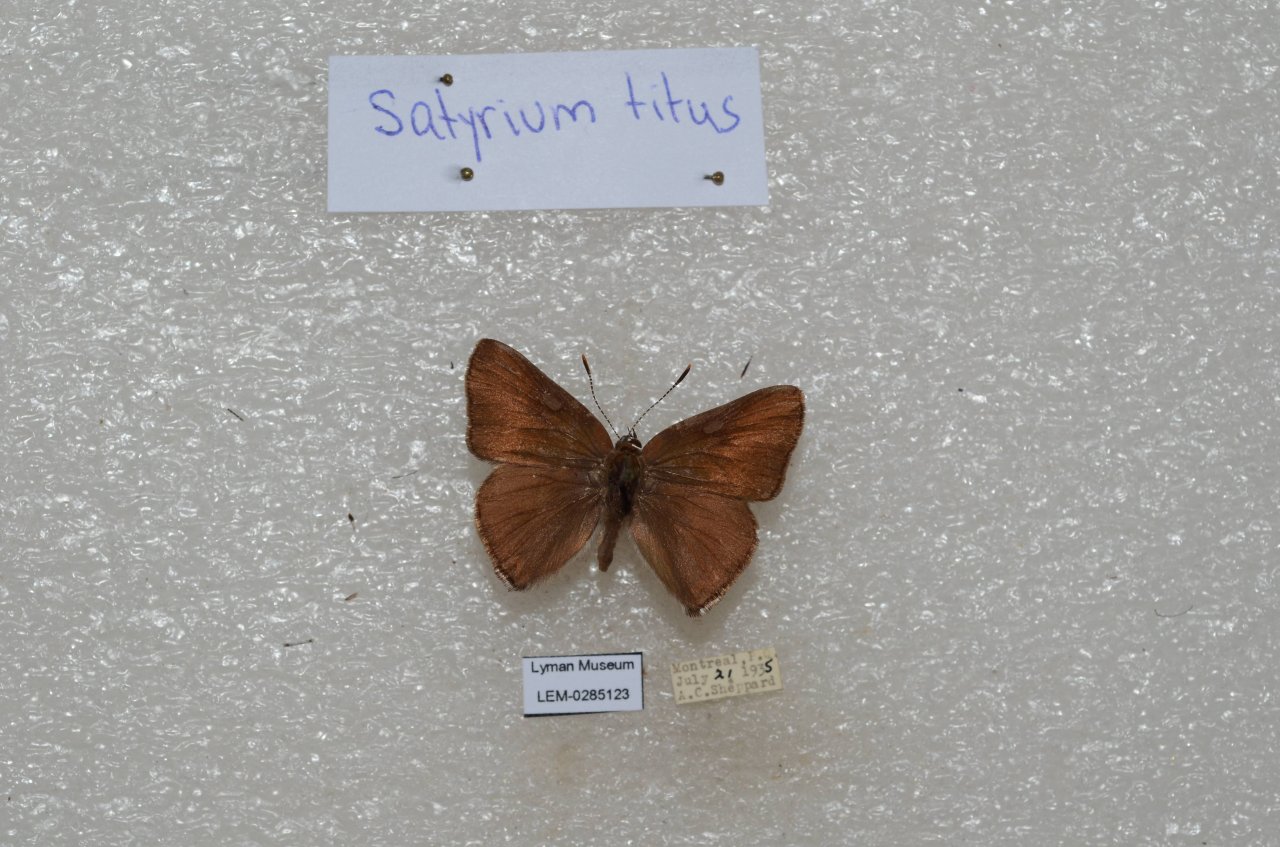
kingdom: Animalia
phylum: Arthropoda
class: Insecta
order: Lepidoptera
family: Lycaenidae
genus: Harkenclenus
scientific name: Harkenclenus titus
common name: Coral Hairstreak
